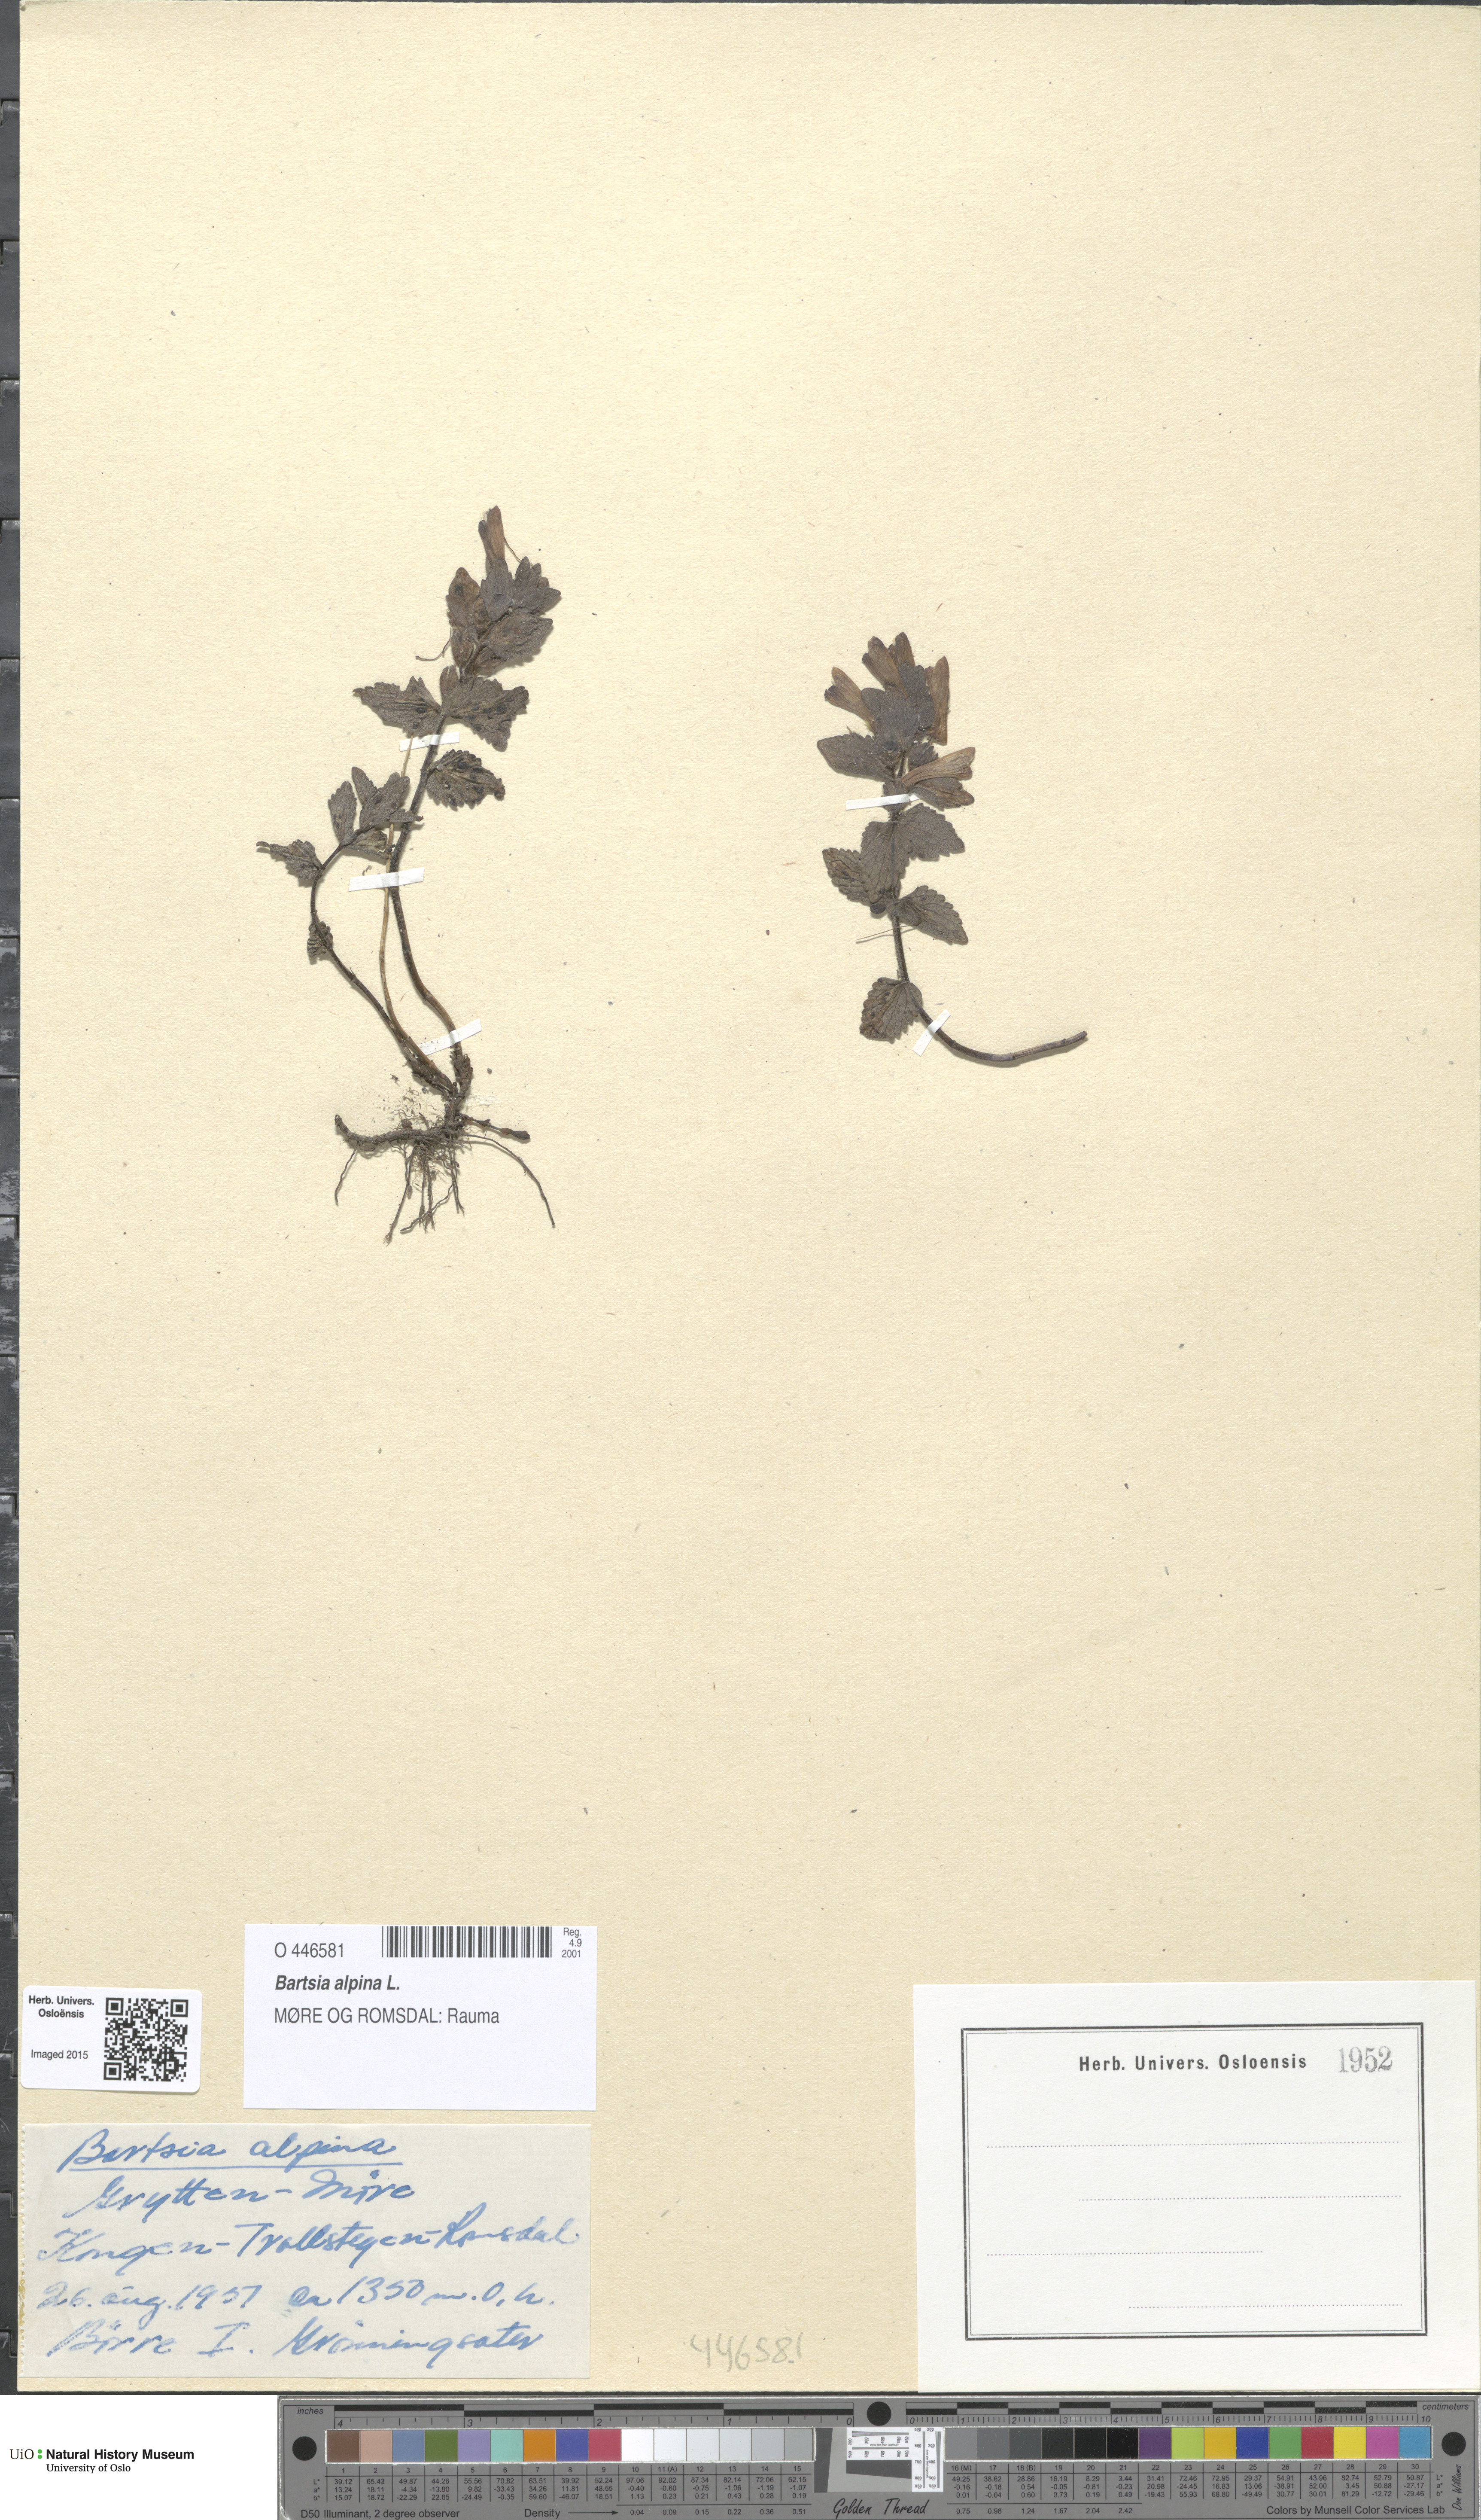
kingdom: Plantae
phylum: Tracheophyta
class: Magnoliopsida
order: Lamiales
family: Orobanchaceae
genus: Bartsia
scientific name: Bartsia alpina
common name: Alpine bartsia
